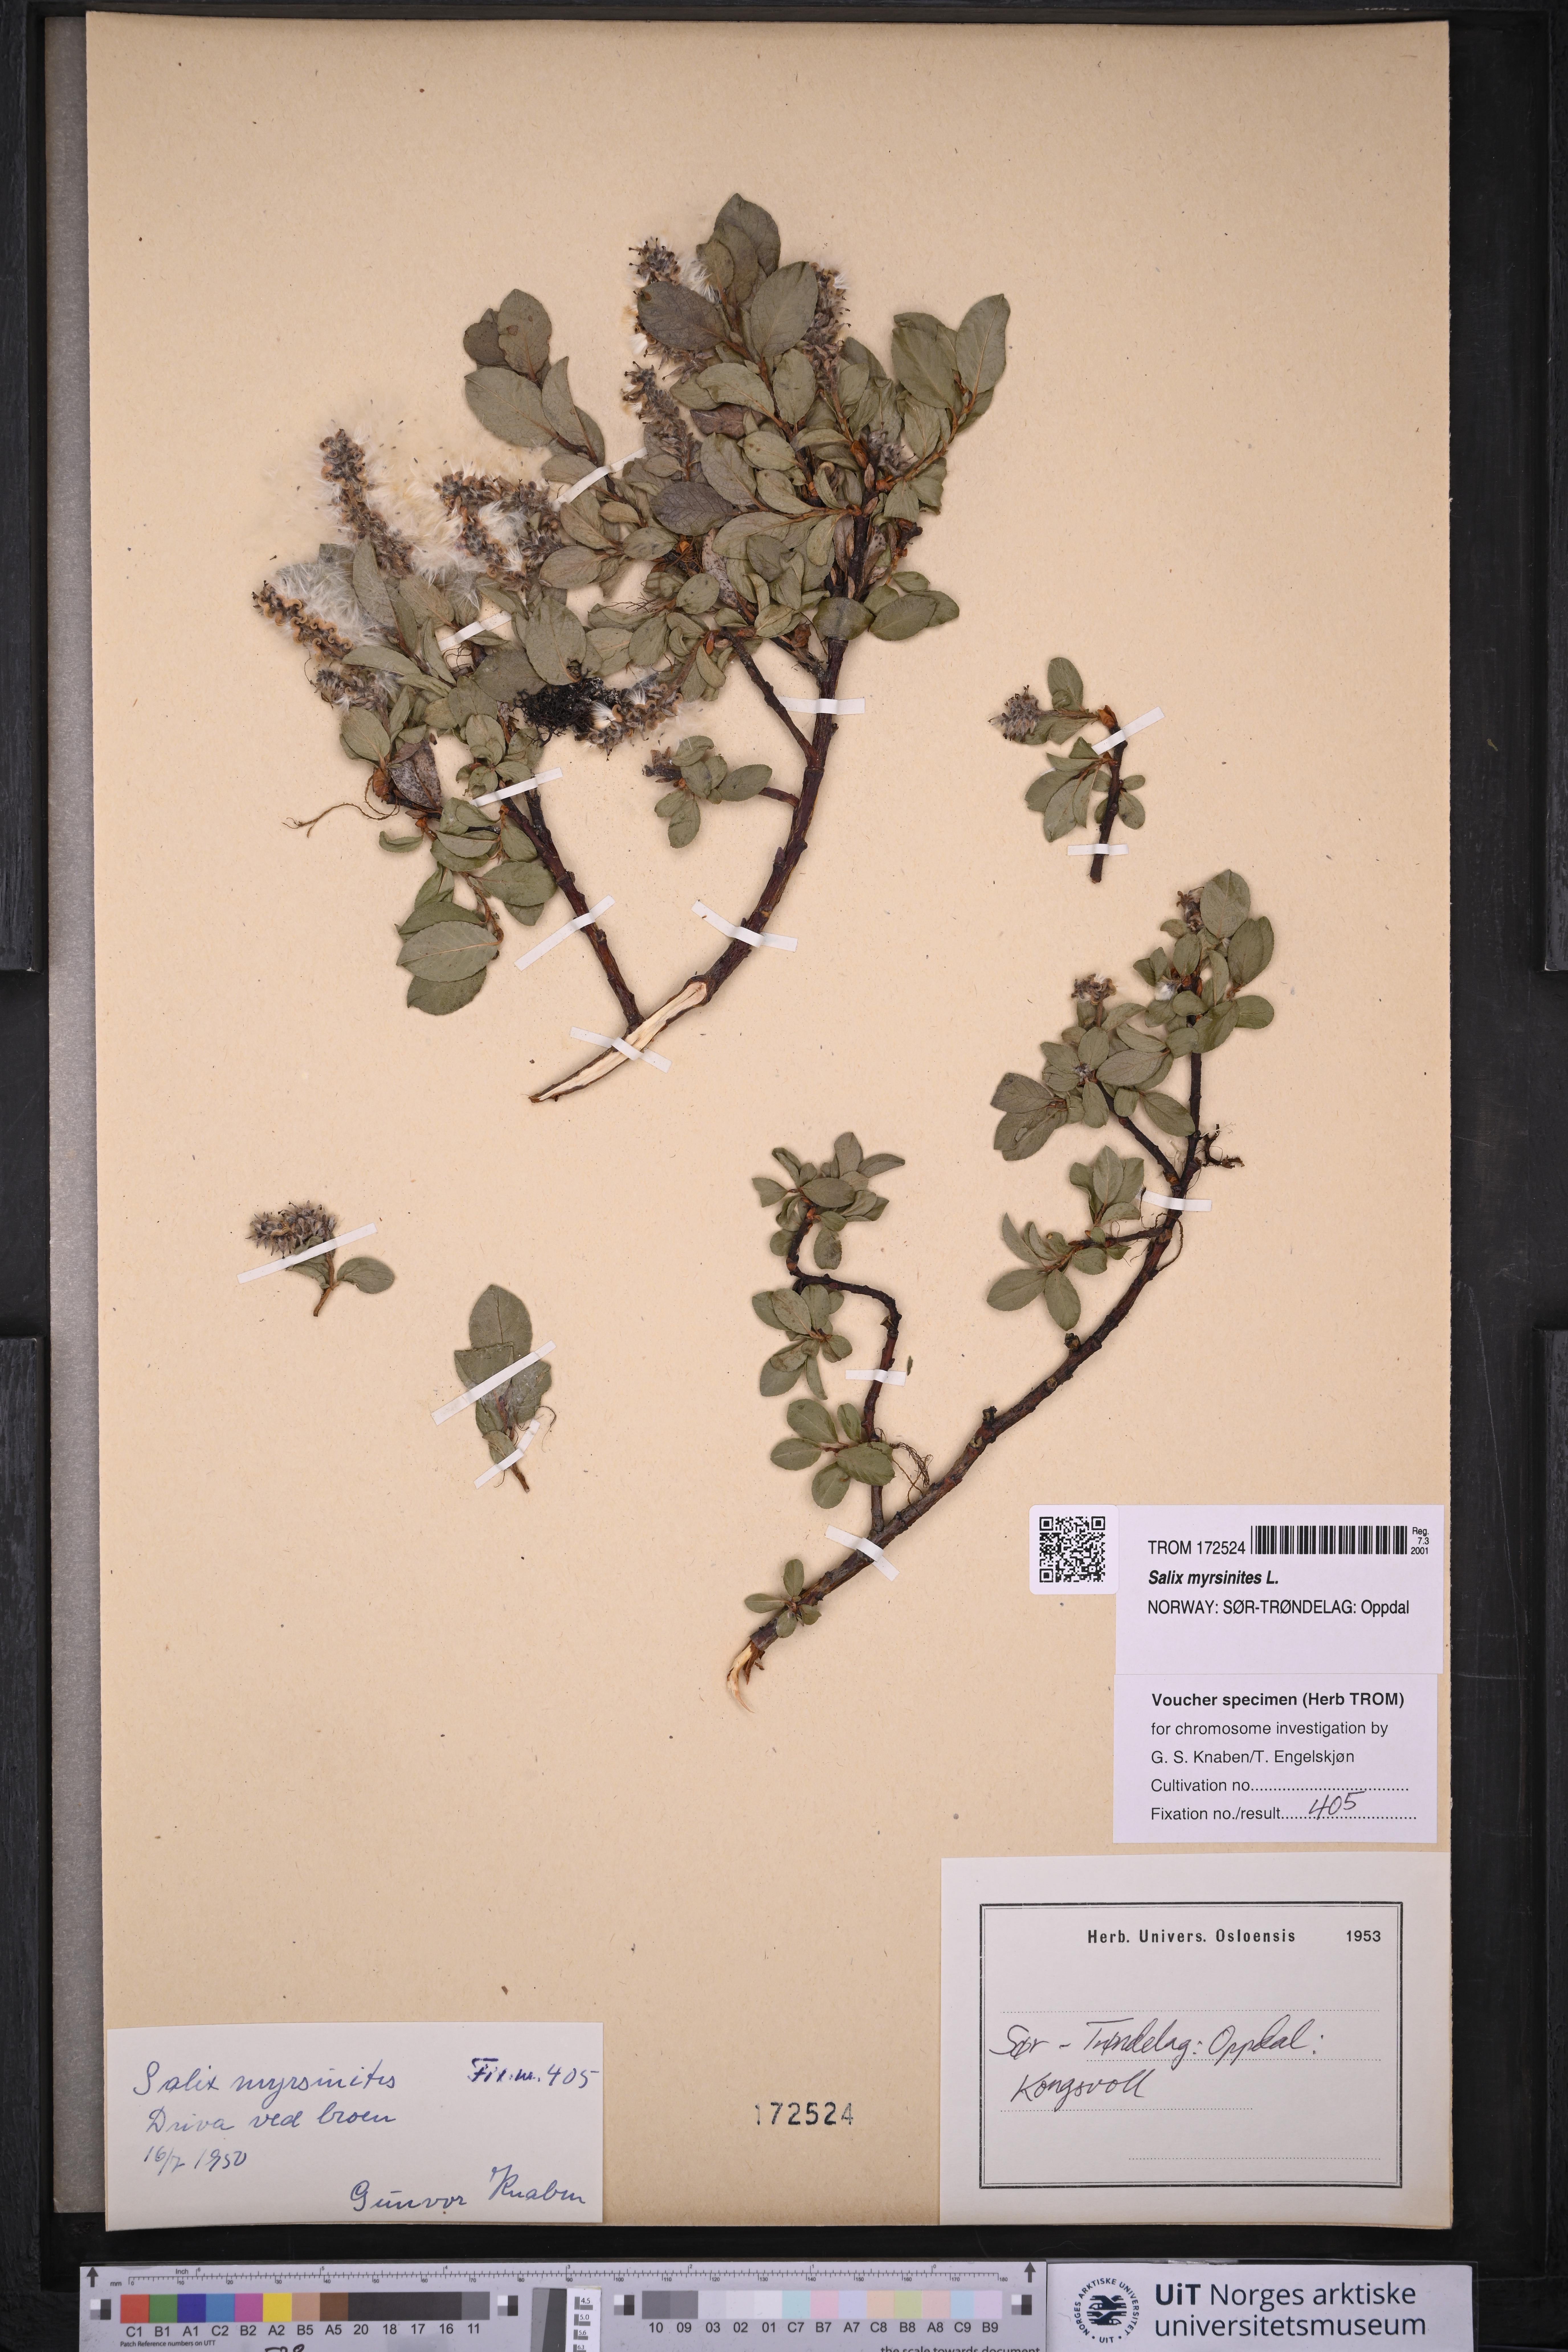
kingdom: Plantae
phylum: Tracheophyta
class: Magnoliopsida
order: Malpighiales
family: Salicaceae
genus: Salix
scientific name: Salix myrsinites
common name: Myrtle willow
